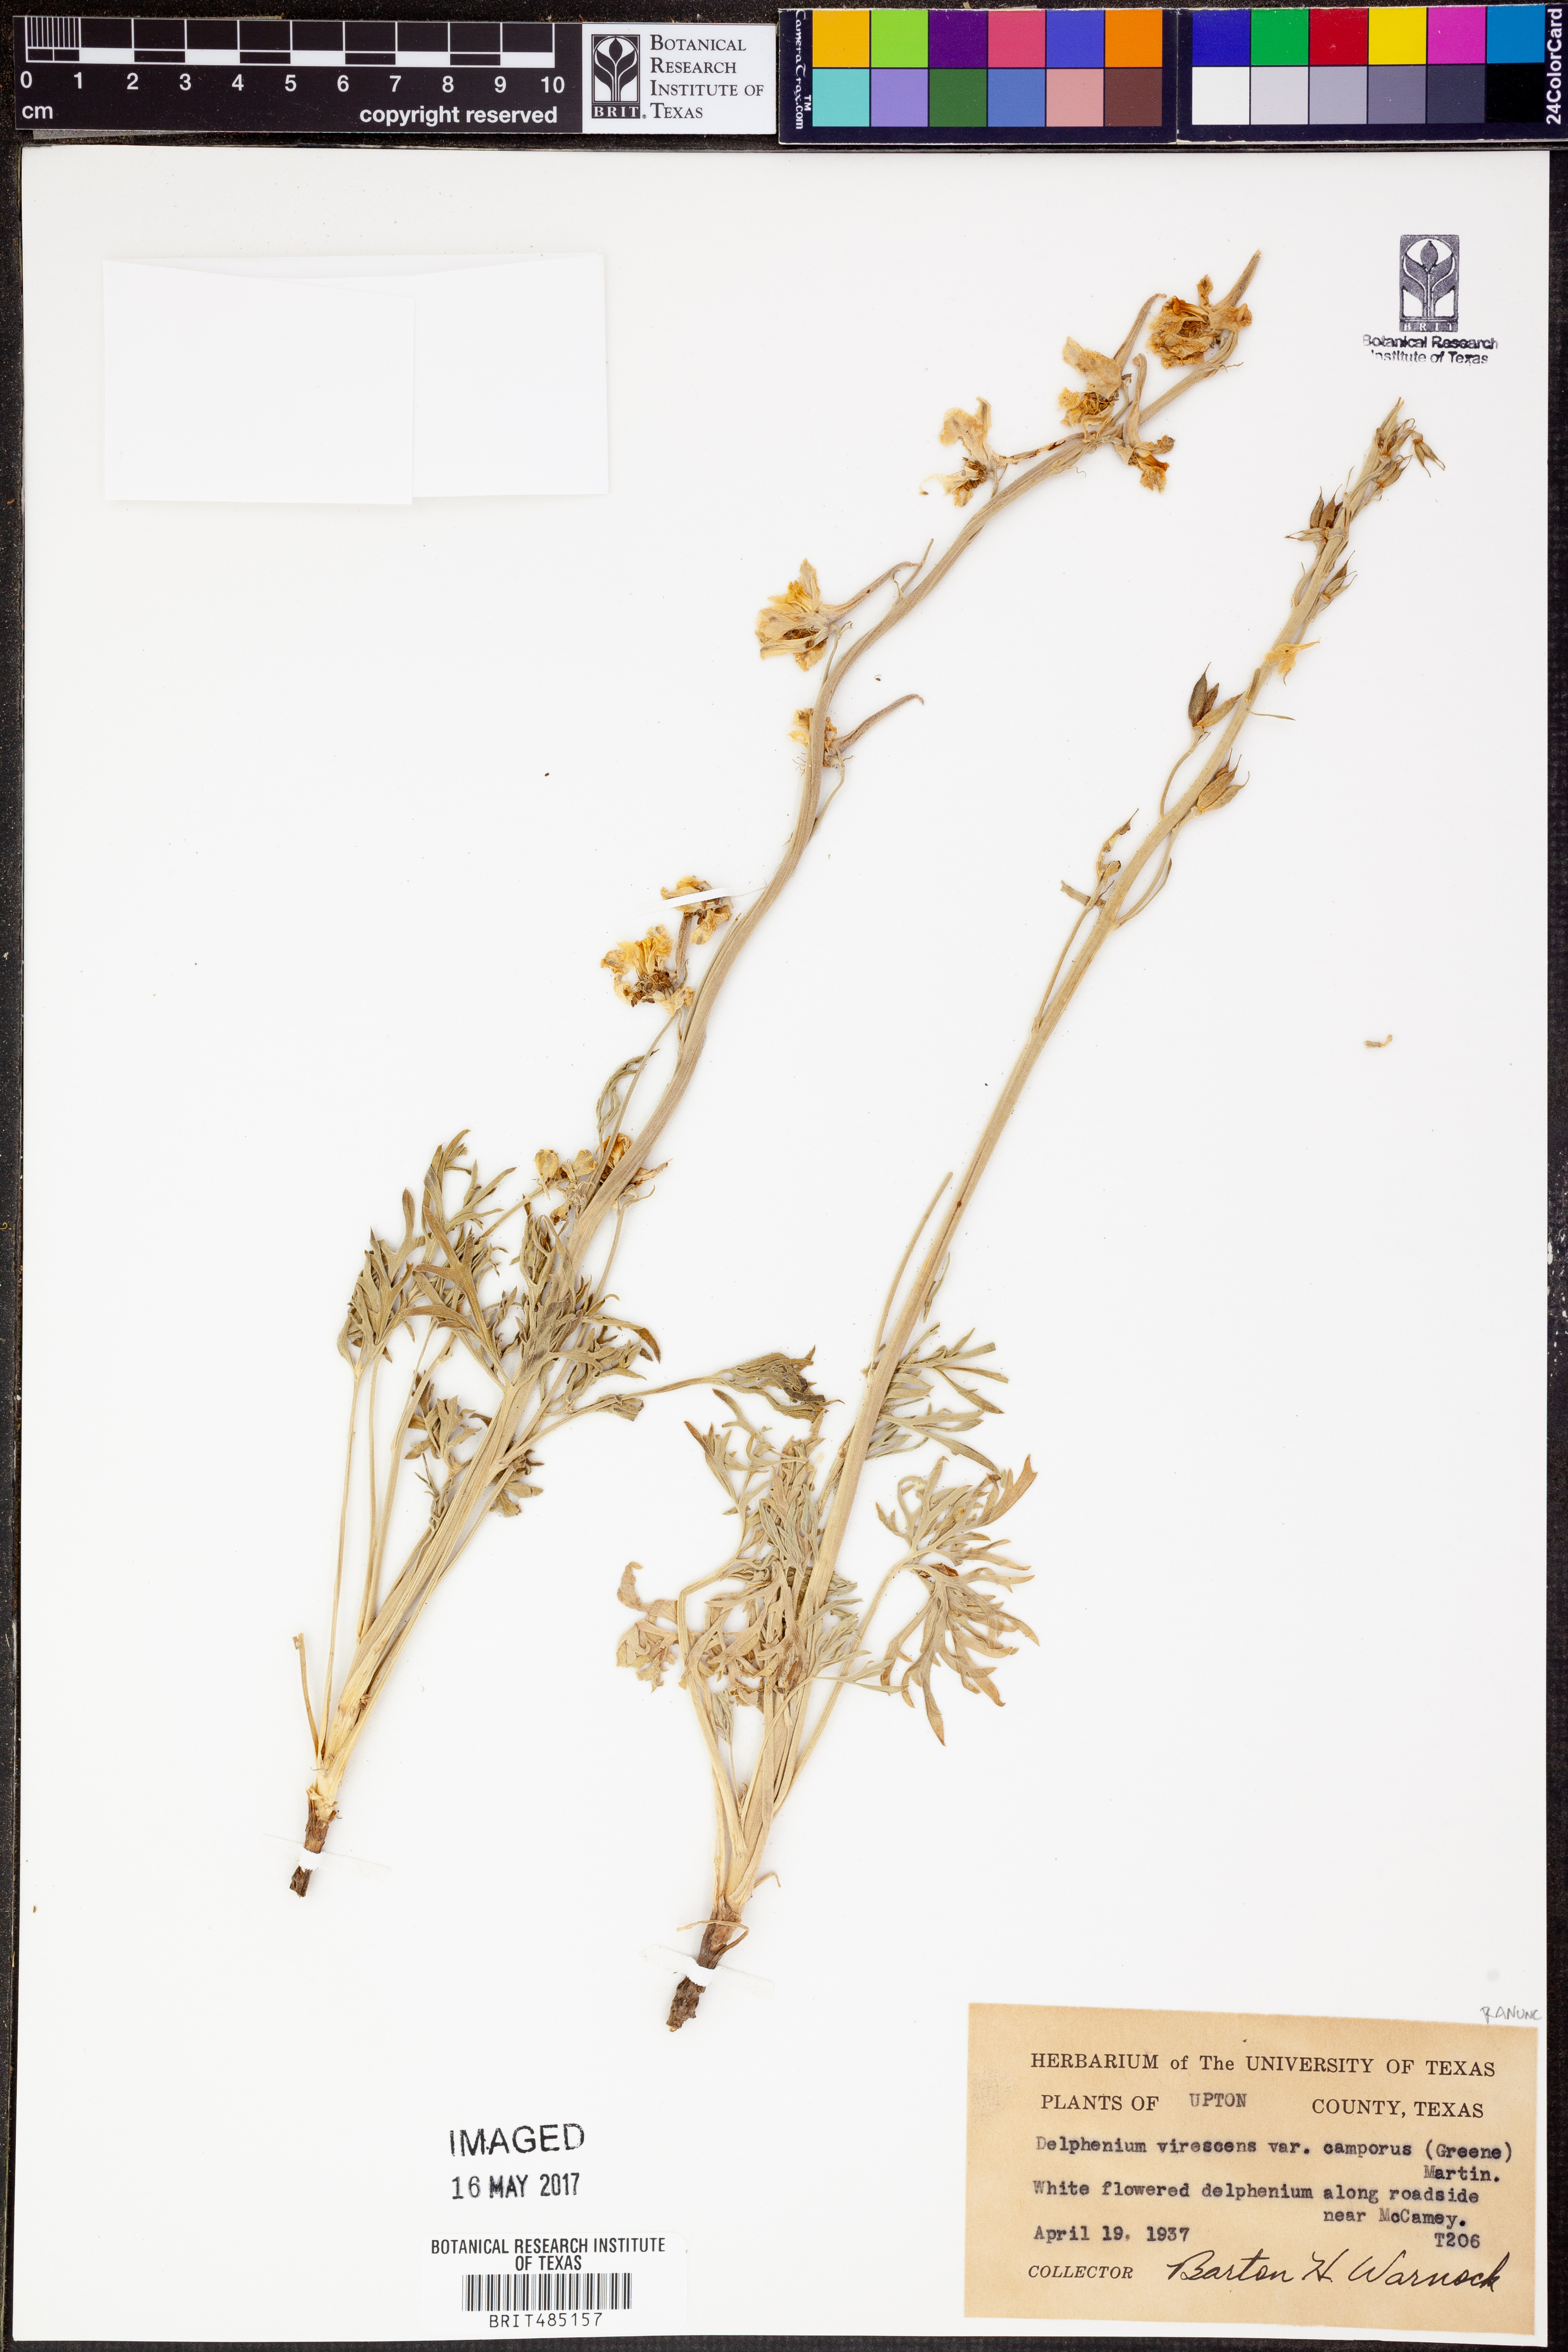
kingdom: Plantae
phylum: Tracheophyta
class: Magnoliopsida
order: Ranunculales
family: Ranunculaceae
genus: Delphinium
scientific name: Delphinium carolinianum
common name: Carolina larkspur
